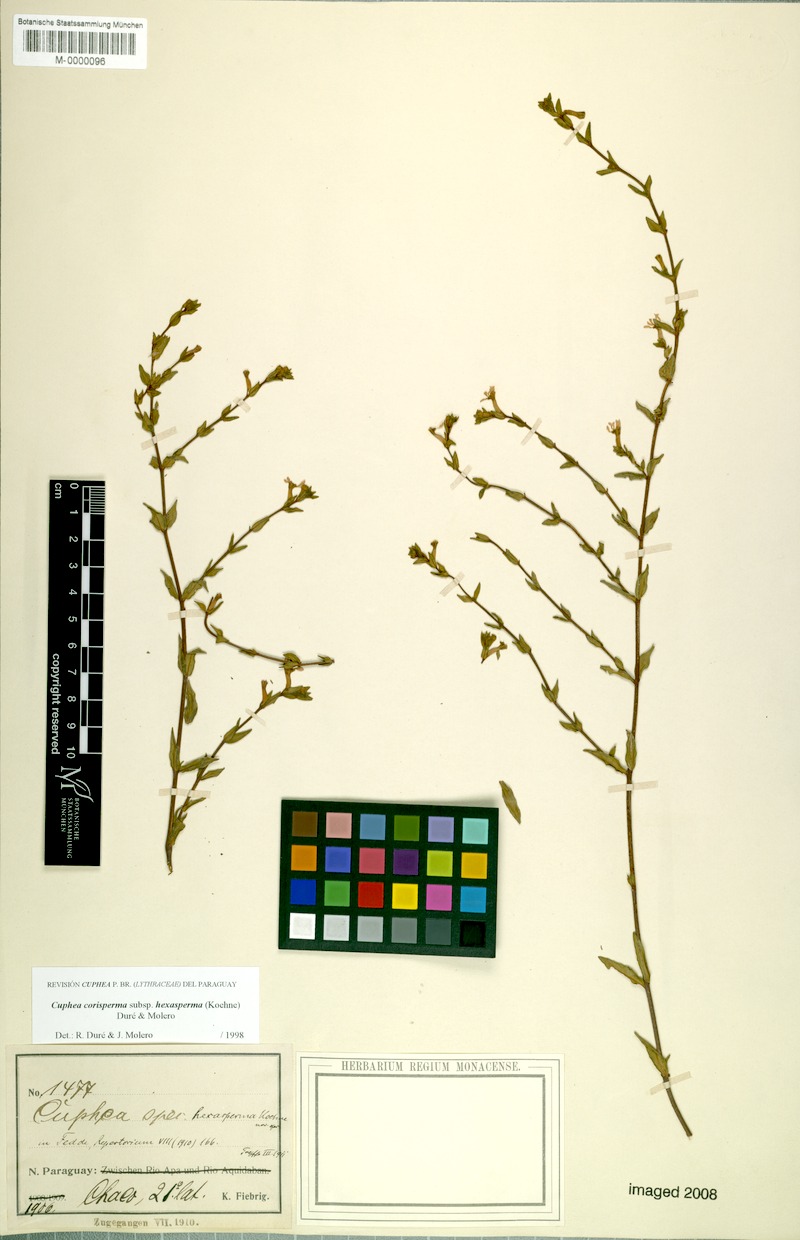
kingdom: Plantae
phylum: Tracheophyta
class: Magnoliopsida
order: Myrtales
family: Lythraceae
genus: Cuphea
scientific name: Cuphea corisperma
